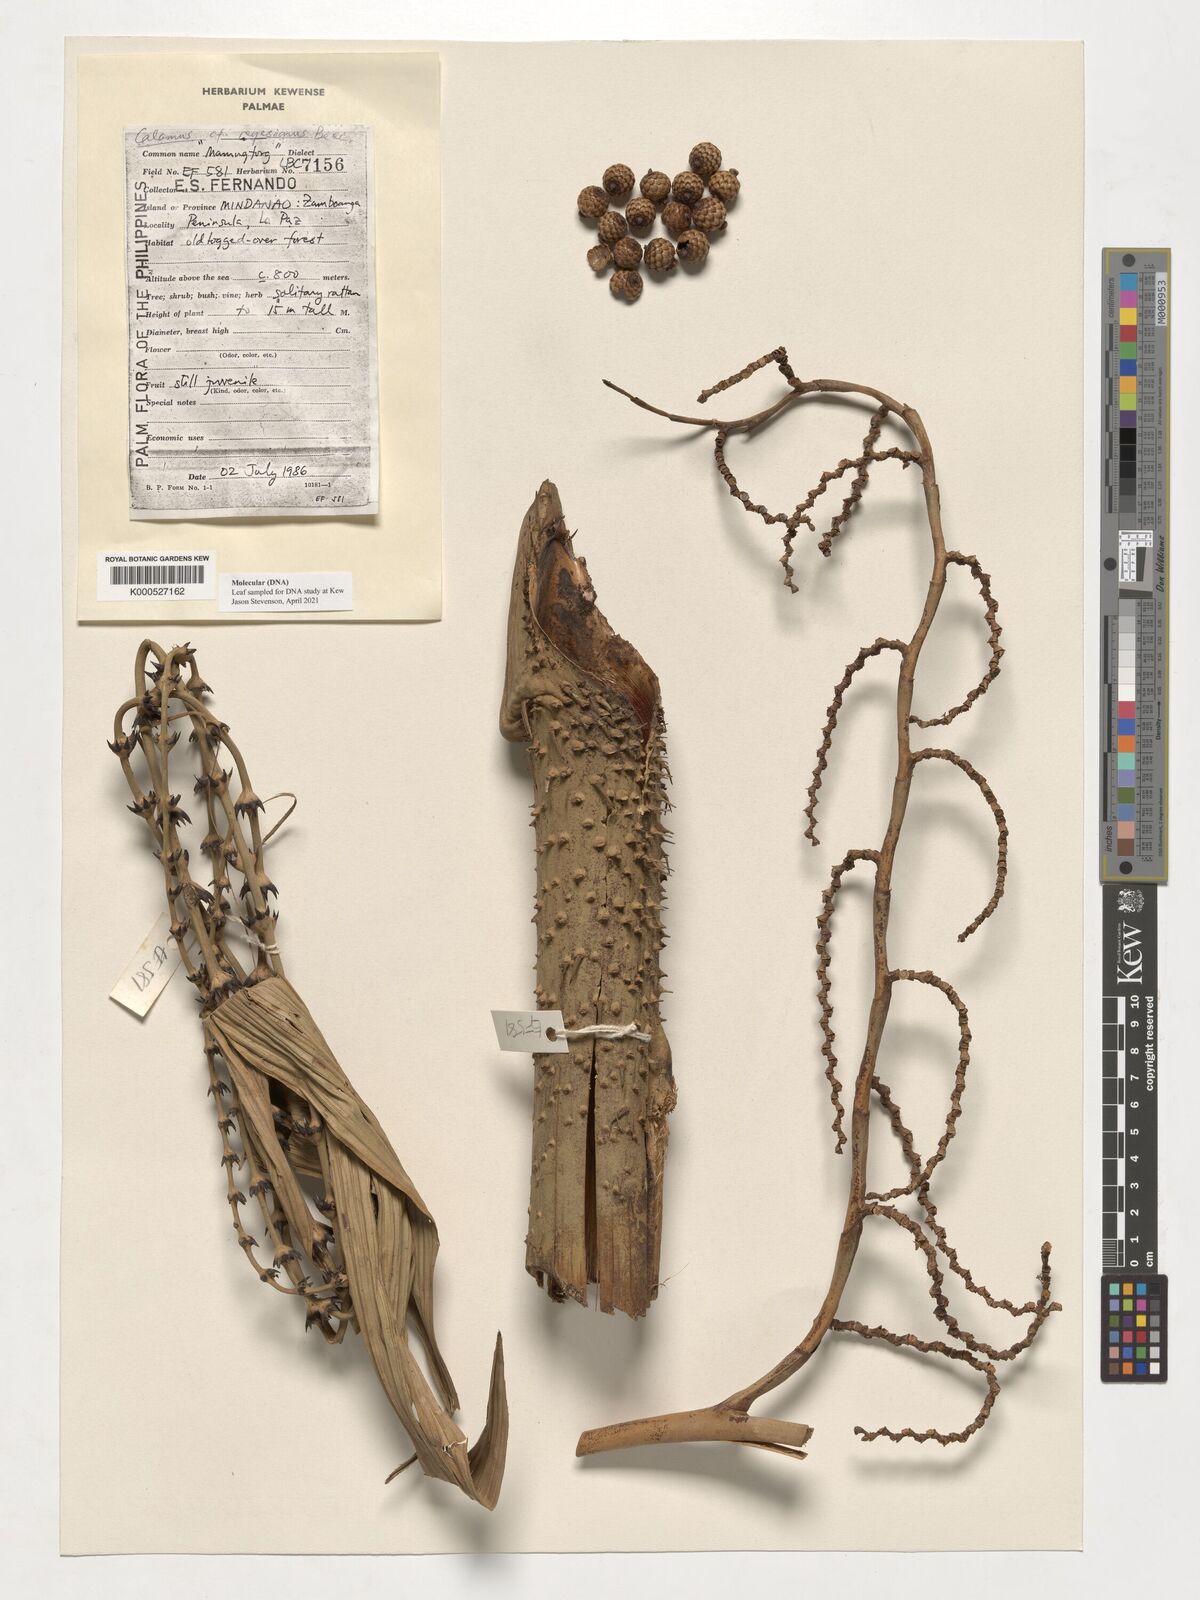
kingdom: Plantae
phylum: Tracheophyta
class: Liliopsida
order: Arecales
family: Arecaceae
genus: Calamus
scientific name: Calamus moseleyanus
